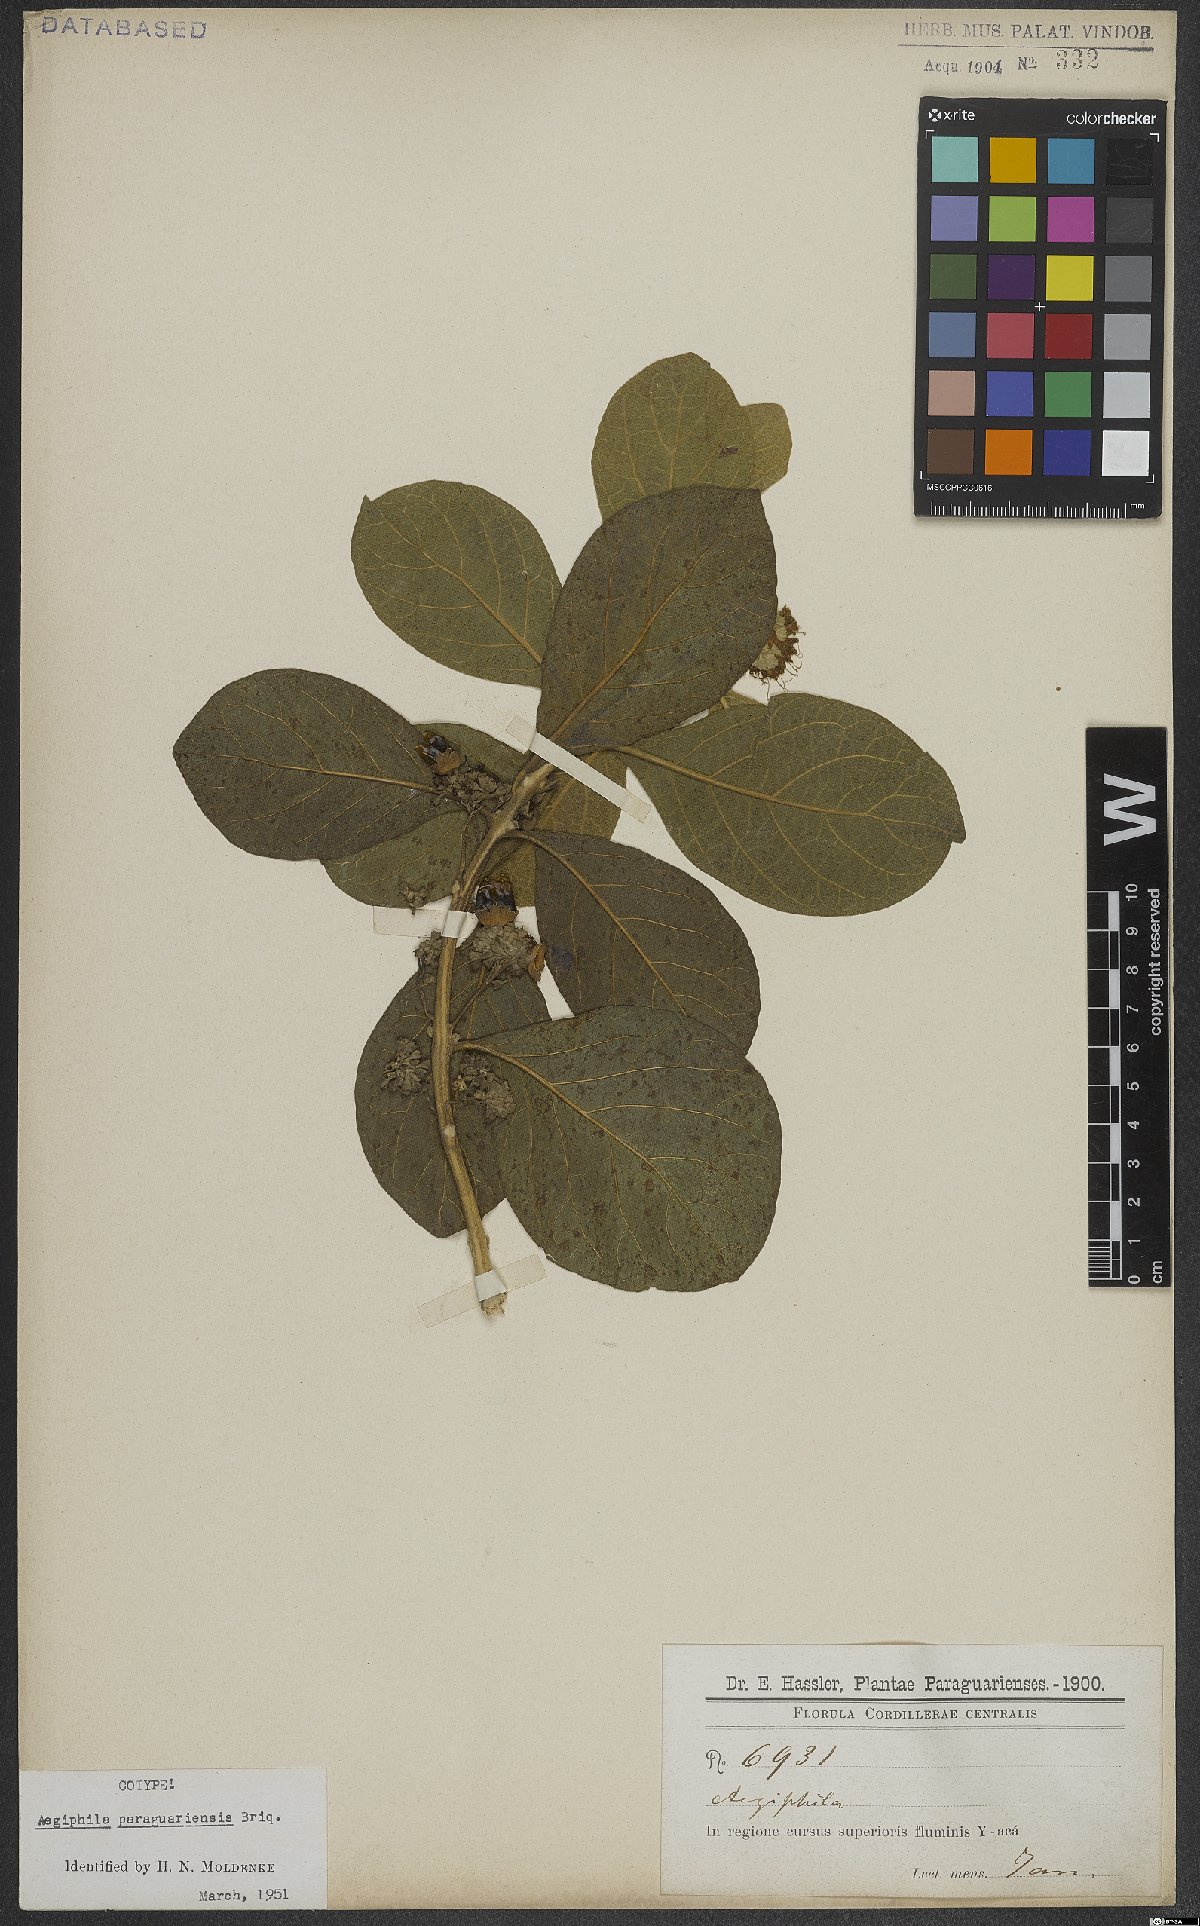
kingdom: Plantae
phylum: Tracheophyta
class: Magnoliopsida
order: Lamiales
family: Lamiaceae
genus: Aegiphila
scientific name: Aegiphila paraguariensis
